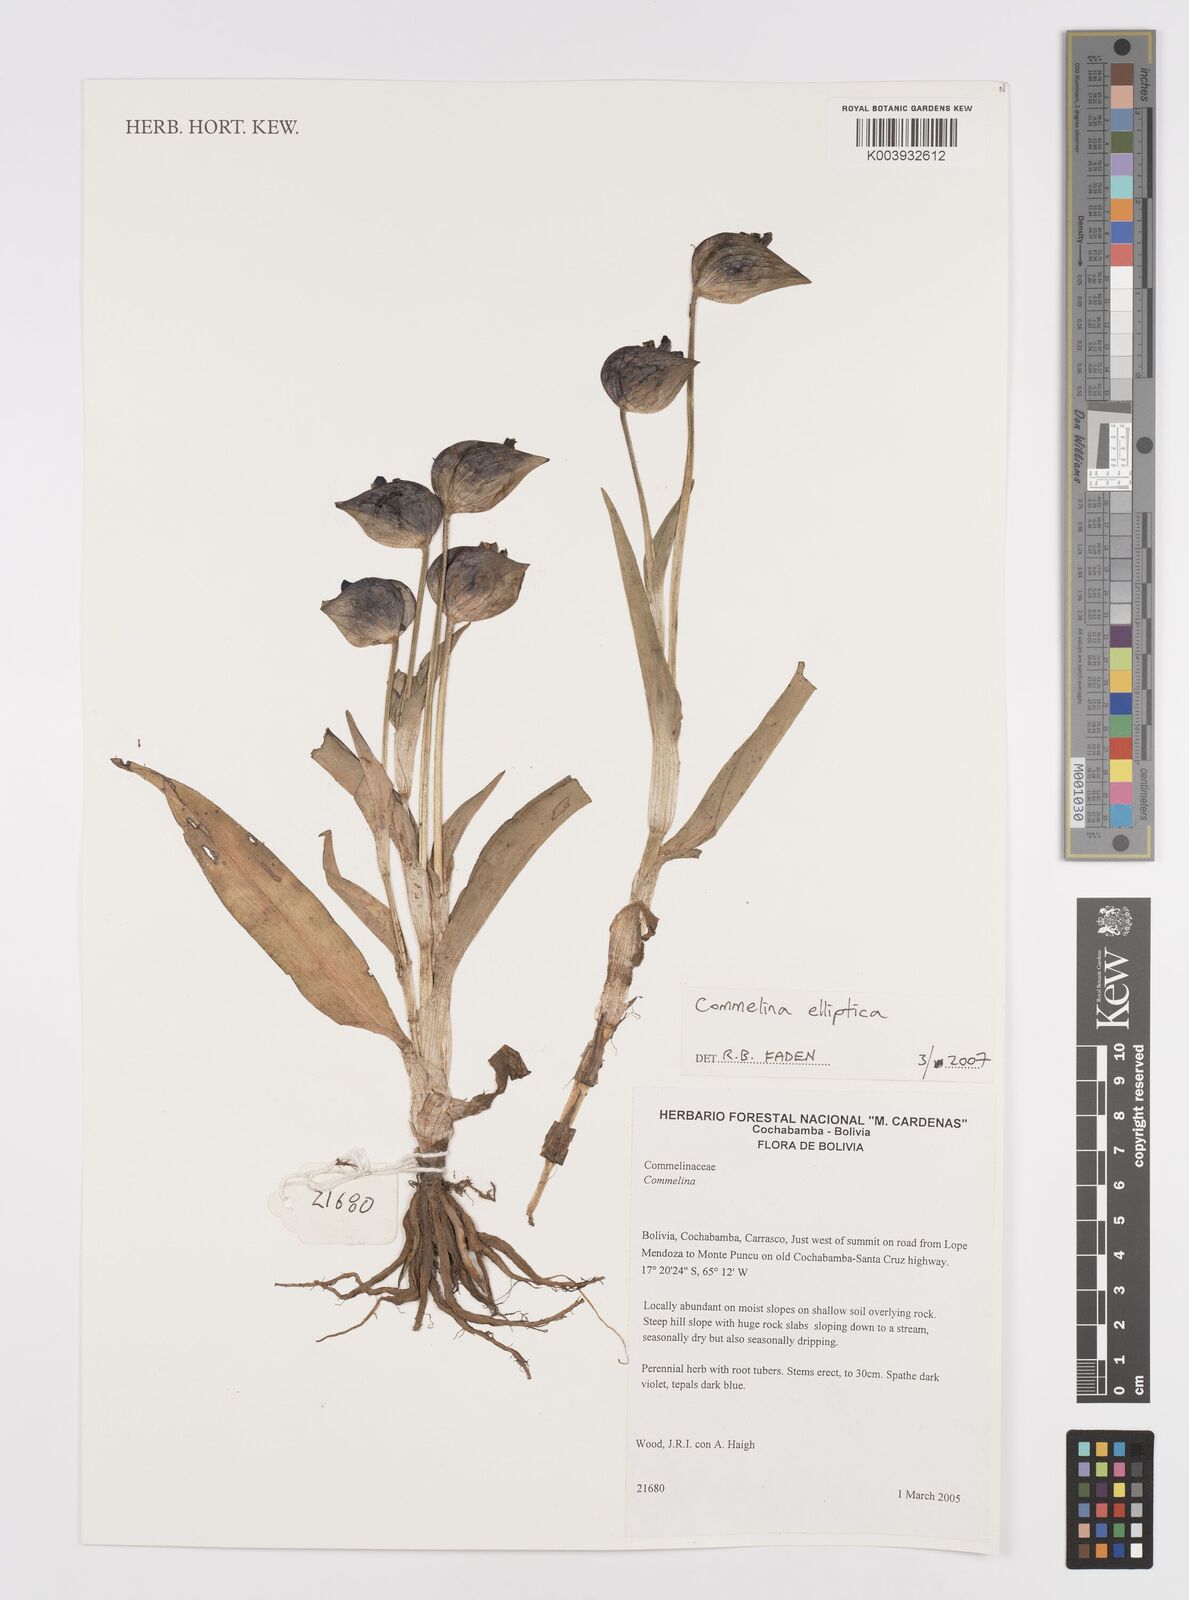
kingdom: Plantae
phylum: Tracheophyta
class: Liliopsida
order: Commelinales
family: Commelinaceae
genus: Commelina
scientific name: Commelina elliptica
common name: Peruvian spiderwort
